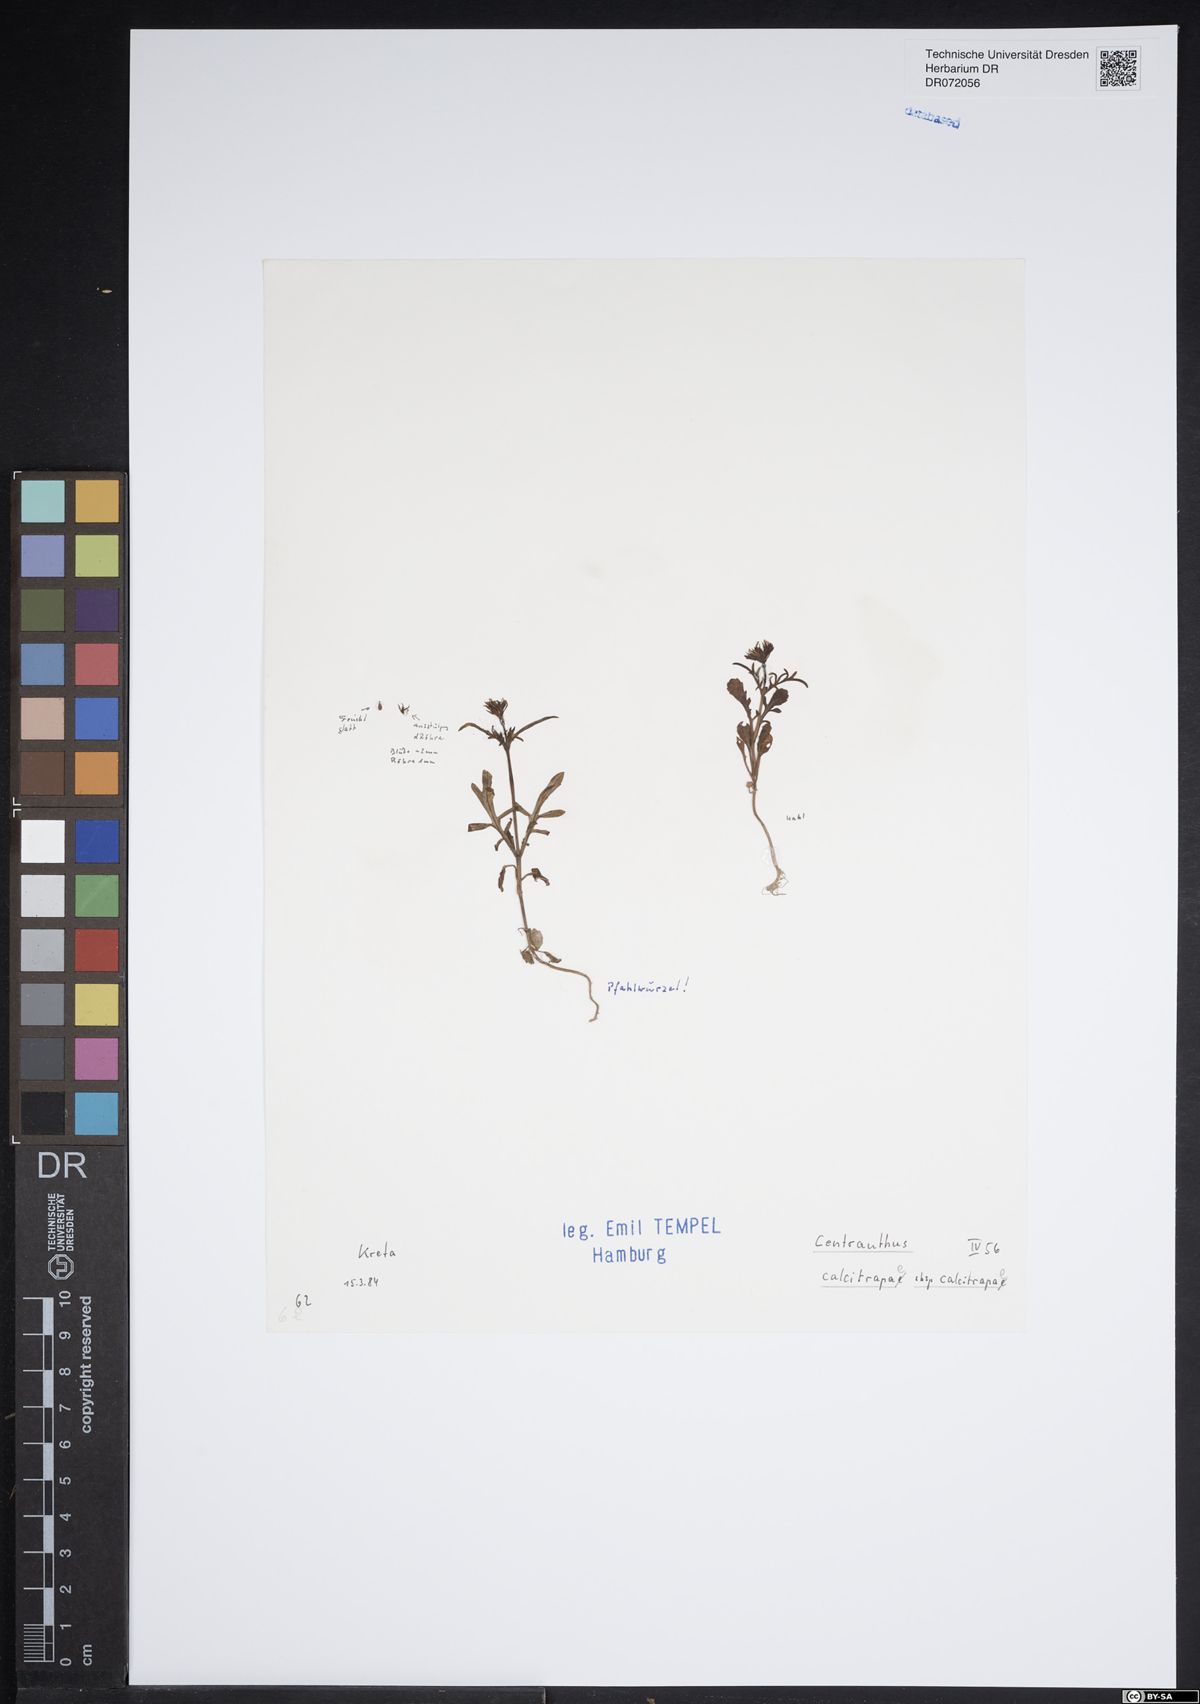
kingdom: Plantae
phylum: Tracheophyta
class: Magnoliopsida
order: Dipsacales
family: Caprifoliaceae
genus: Centranthus
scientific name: Centranthus calcitrapae
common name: Annual valerian
